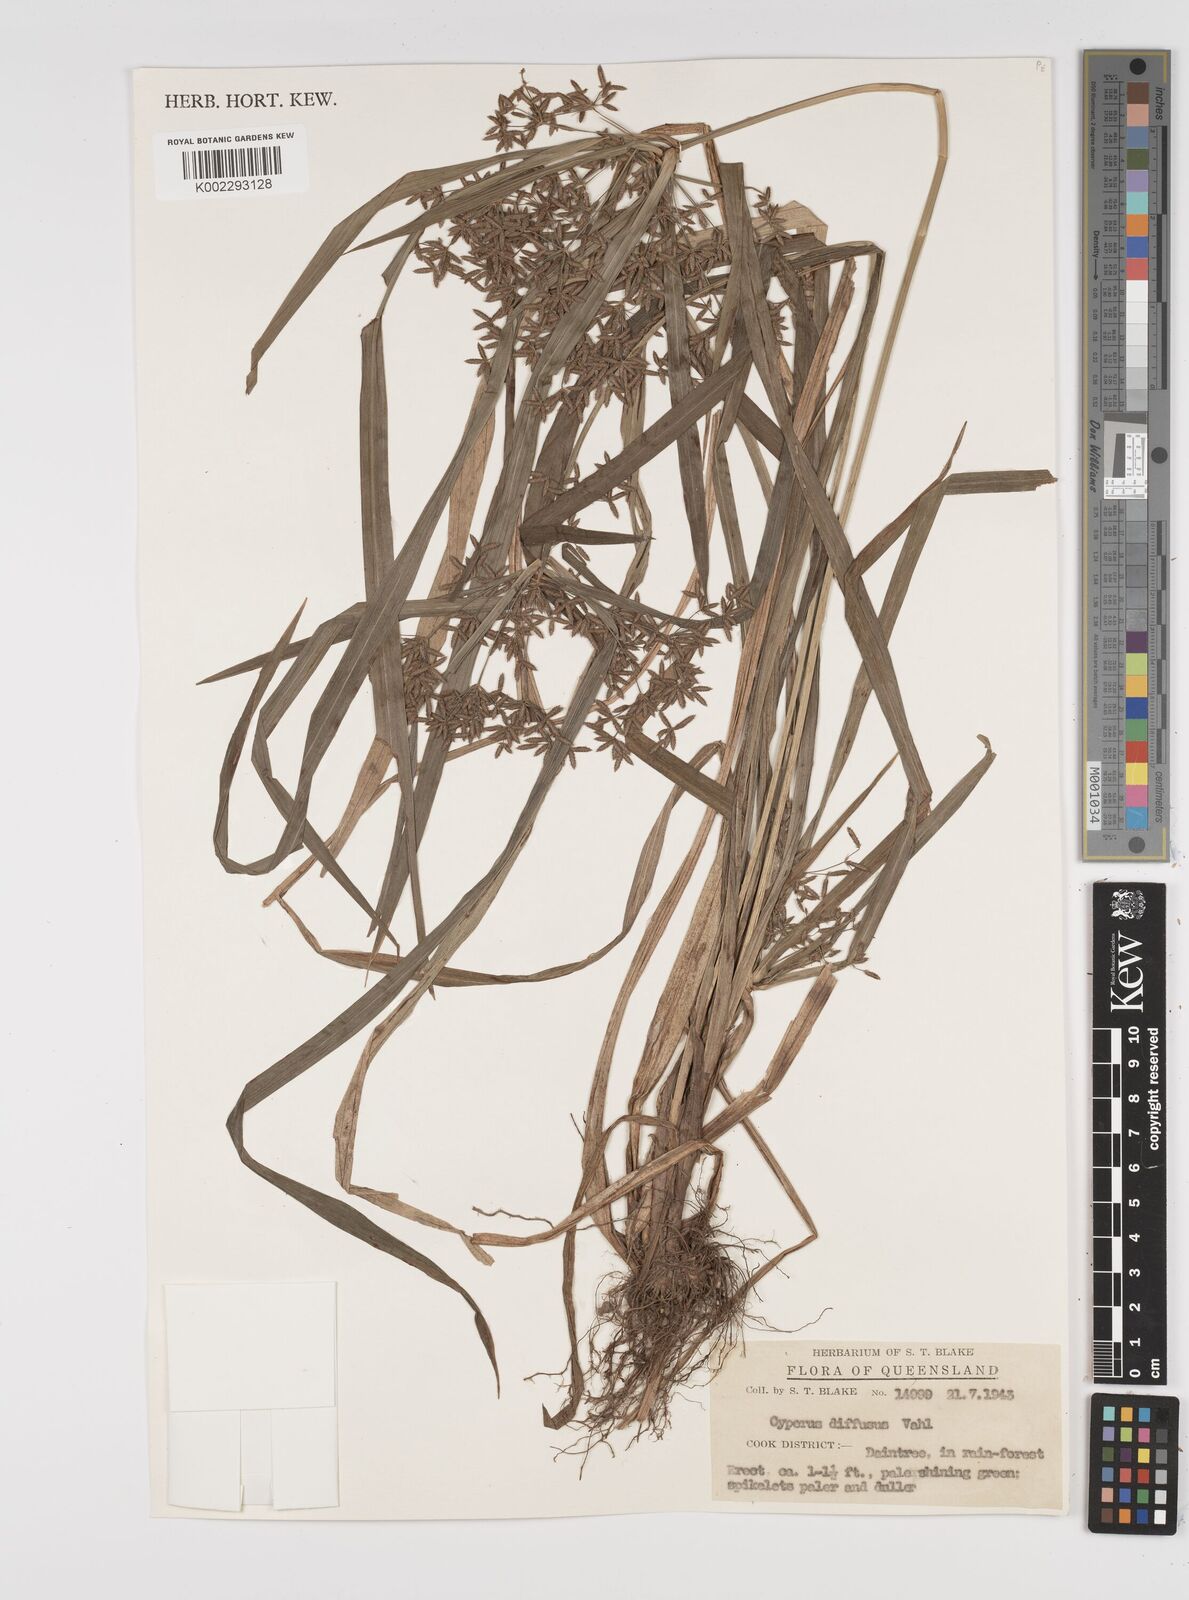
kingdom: Plantae
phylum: Tracheophyta
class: Liliopsida
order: Poales
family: Cyperaceae
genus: Cyperus
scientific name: Cyperus laxus
